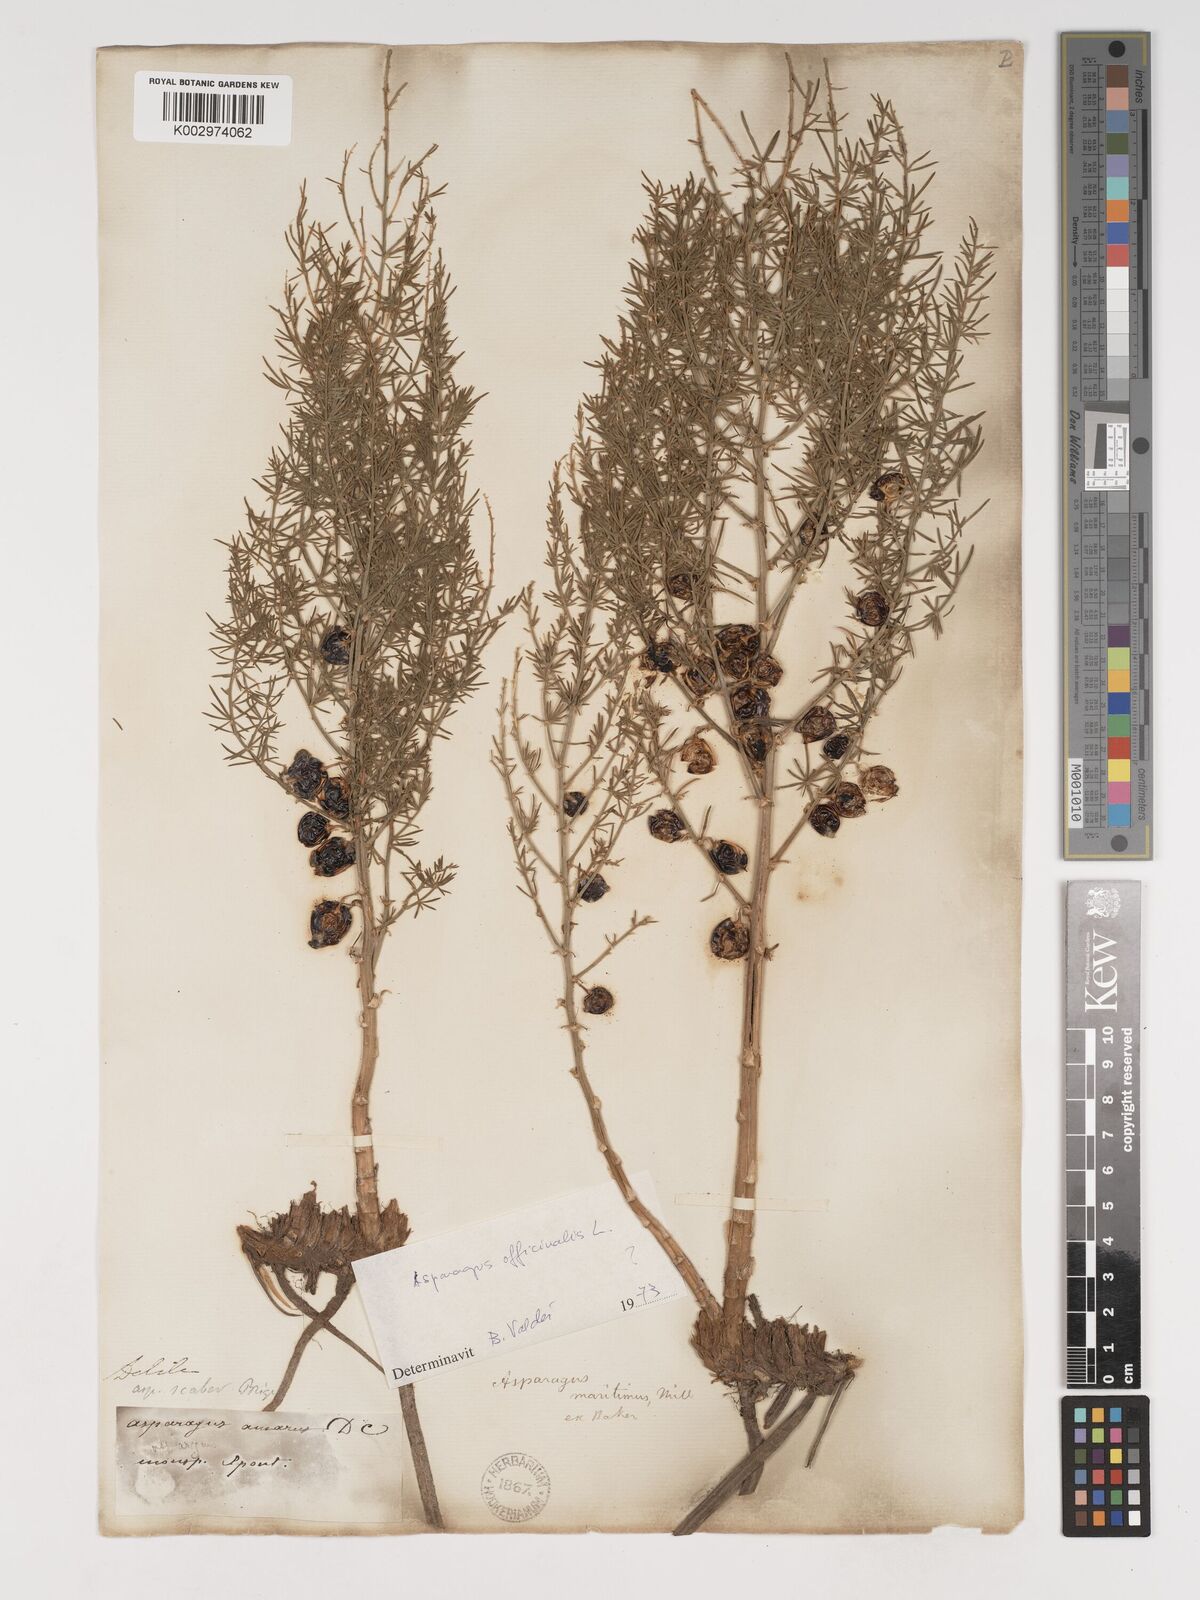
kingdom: Plantae
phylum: Tracheophyta
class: Liliopsida
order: Asparagales
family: Asparagaceae
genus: Asparagus
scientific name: Asparagus maritimus
